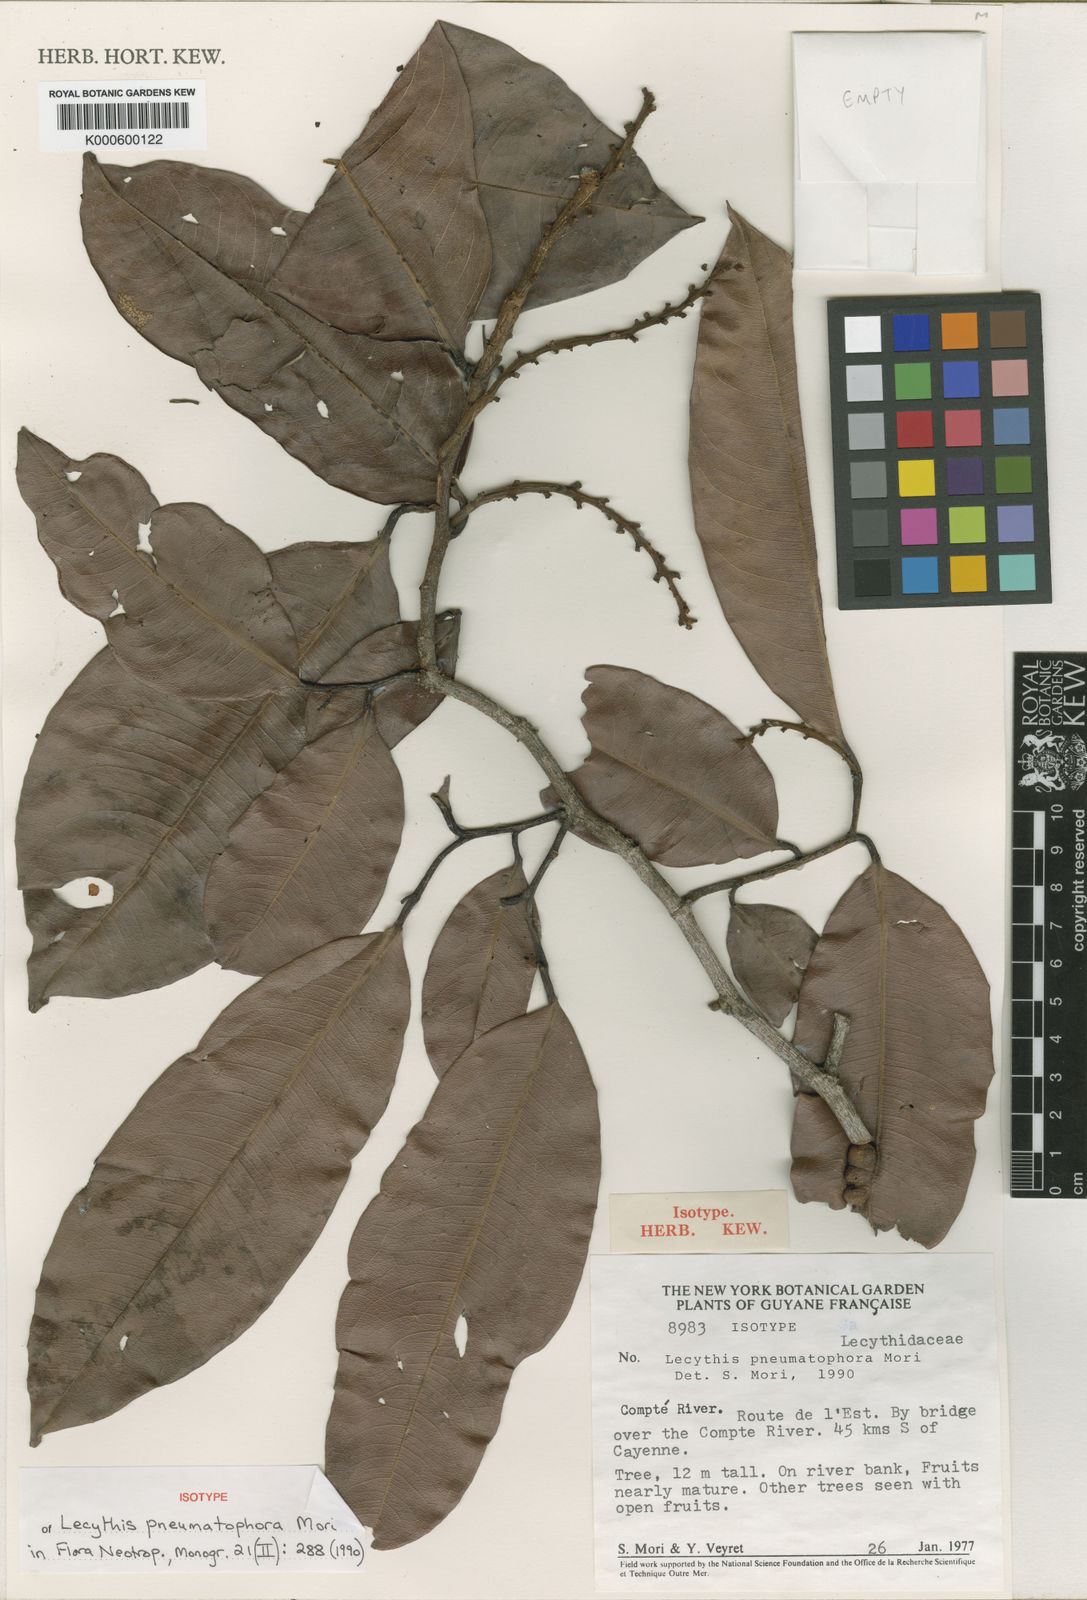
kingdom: Plantae
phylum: Tracheophyta
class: Magnoliopsida
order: Ericales
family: Lecythidaceae
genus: Lecythis
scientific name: Lecythis pneumatophora
